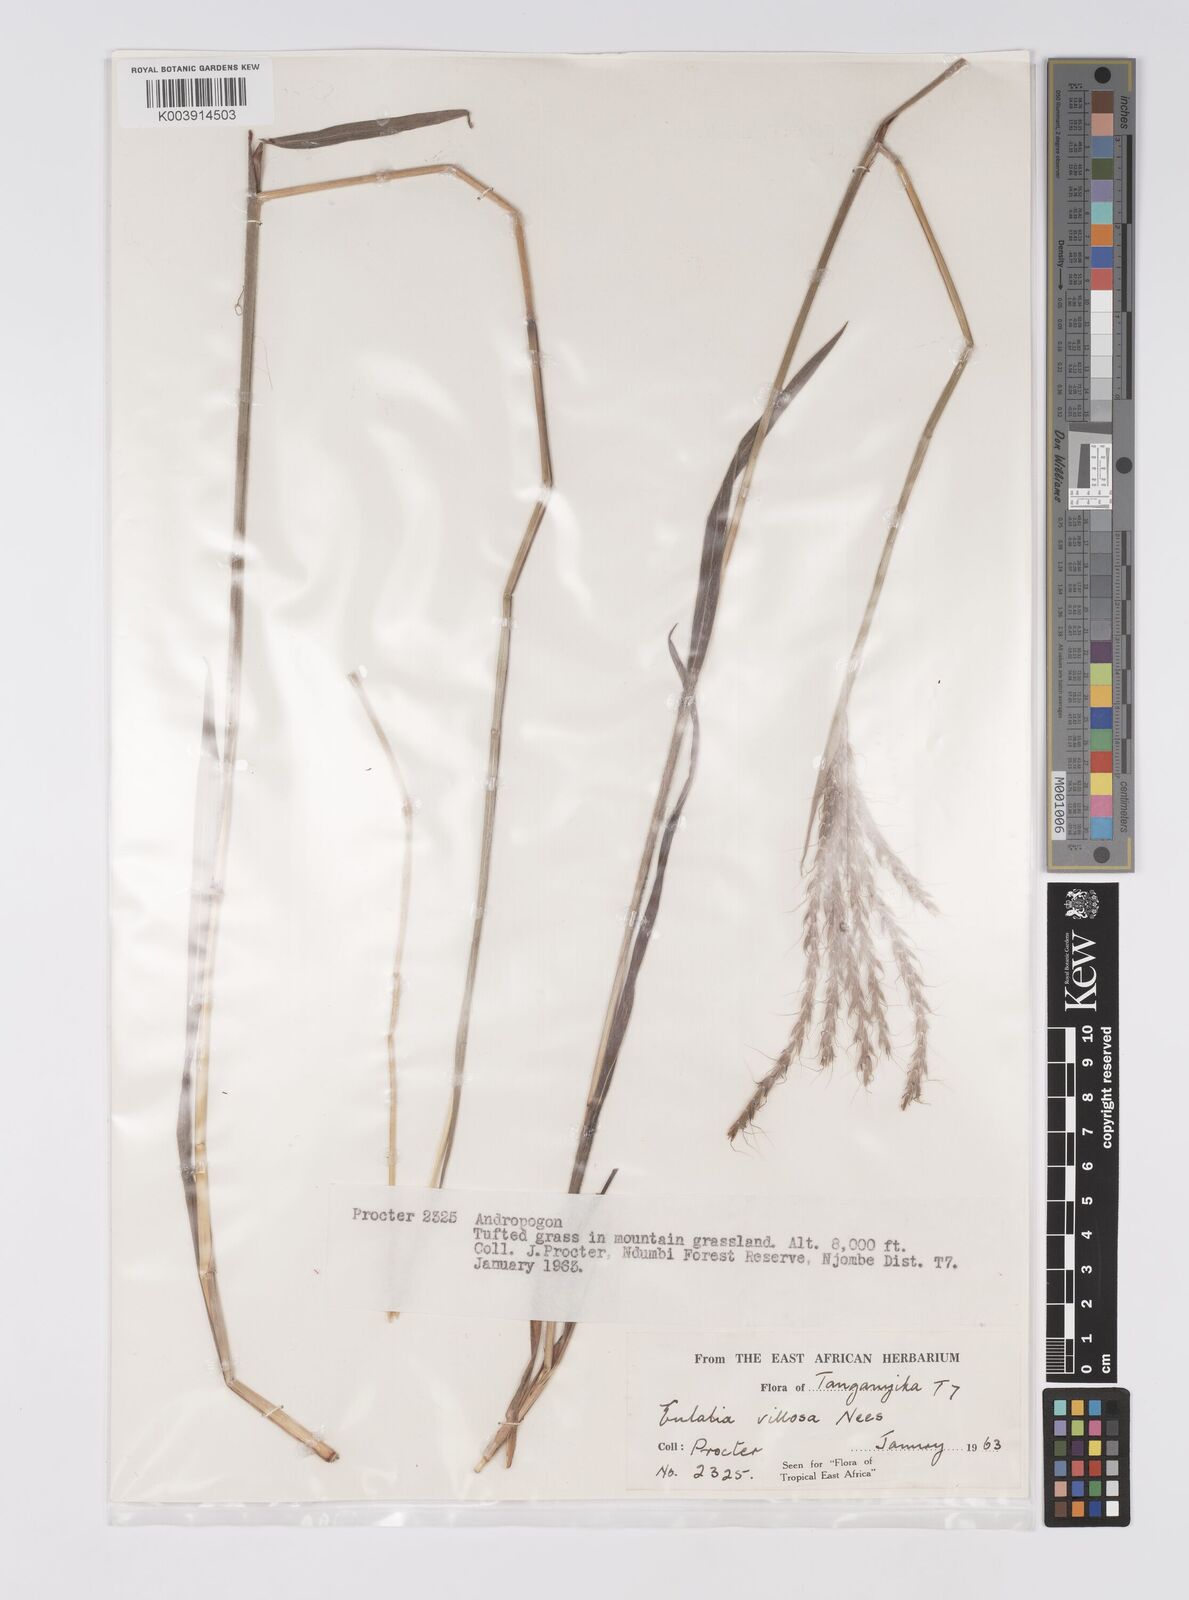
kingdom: Plantae
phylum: Tracheophyta
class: Liliopsida
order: Poales
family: Poaceae
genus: Eulalia
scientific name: Eulalia villosa
